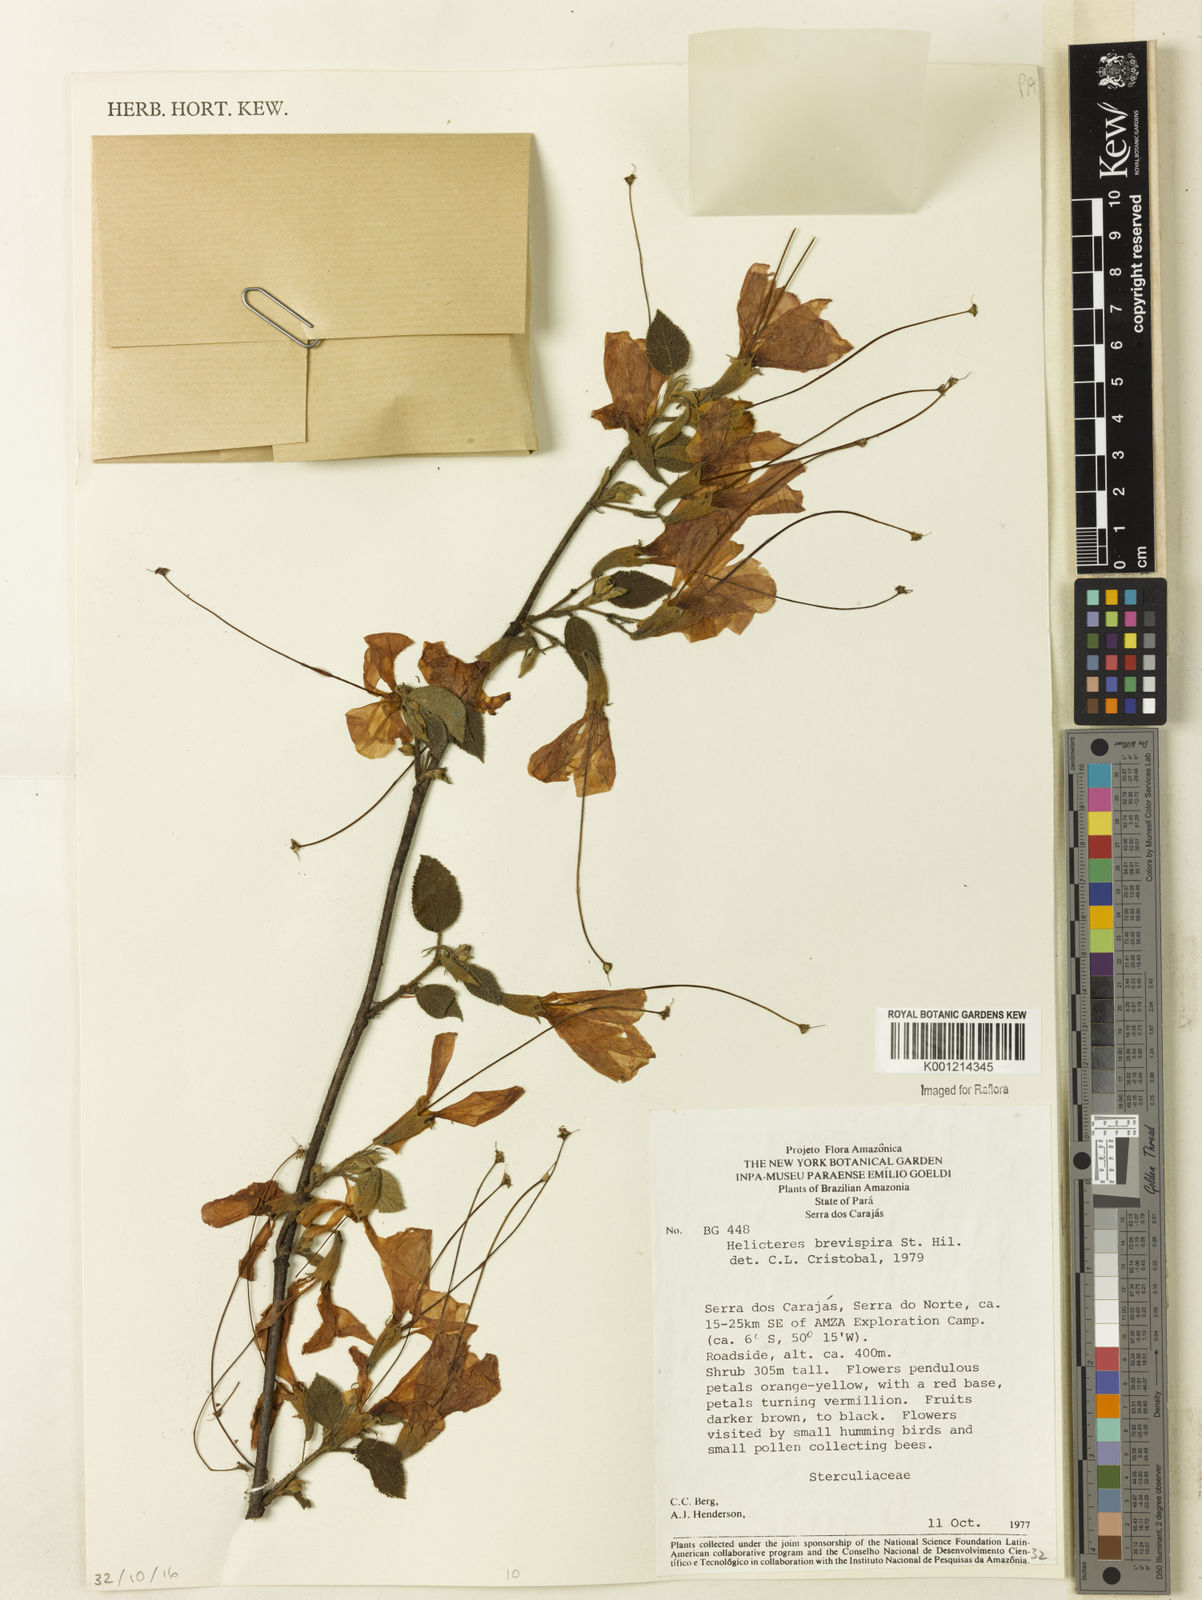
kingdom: Plantae
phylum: Tracheophyta
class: Magnoliopsida
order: Malvales
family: Malvaceae
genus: Helicteres
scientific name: Helicteres
